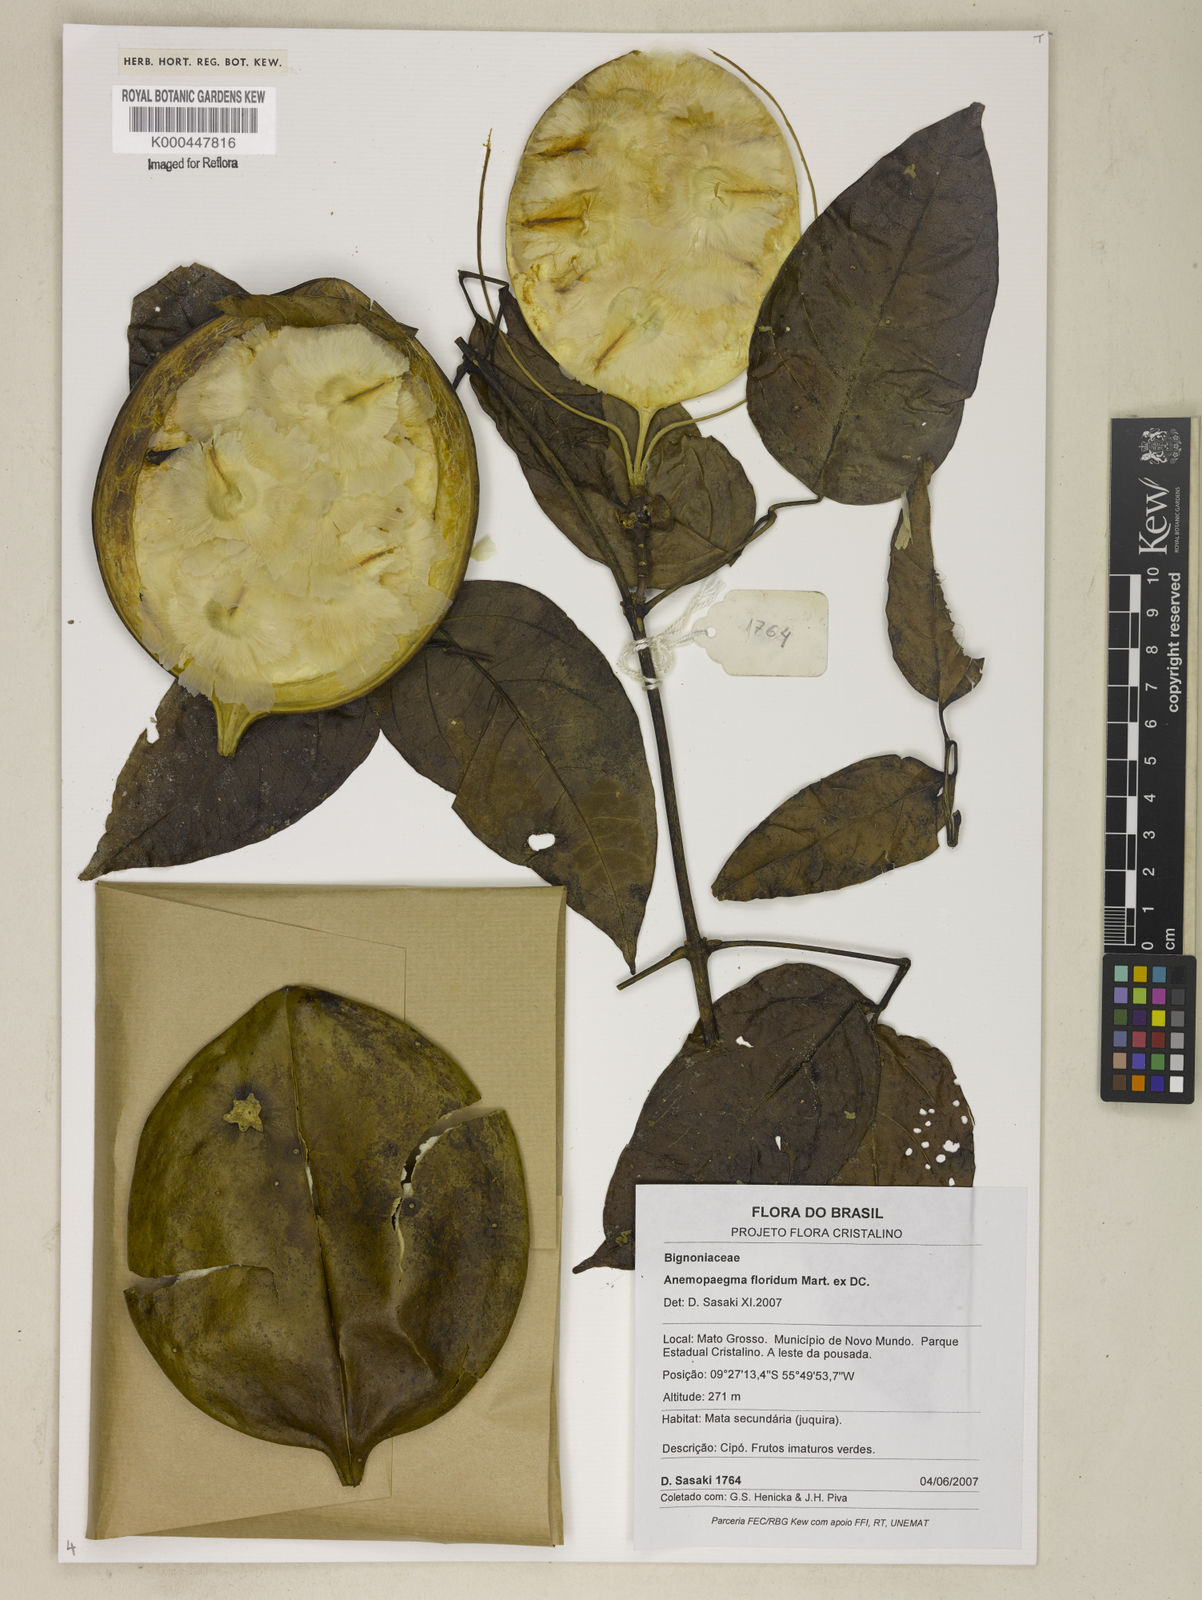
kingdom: Plantae
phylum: Tracheophyta
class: Magnoliopsida
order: Lamiales
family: Bignoniaceae
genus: Anemopaegma
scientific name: Anemopaegma floridum
